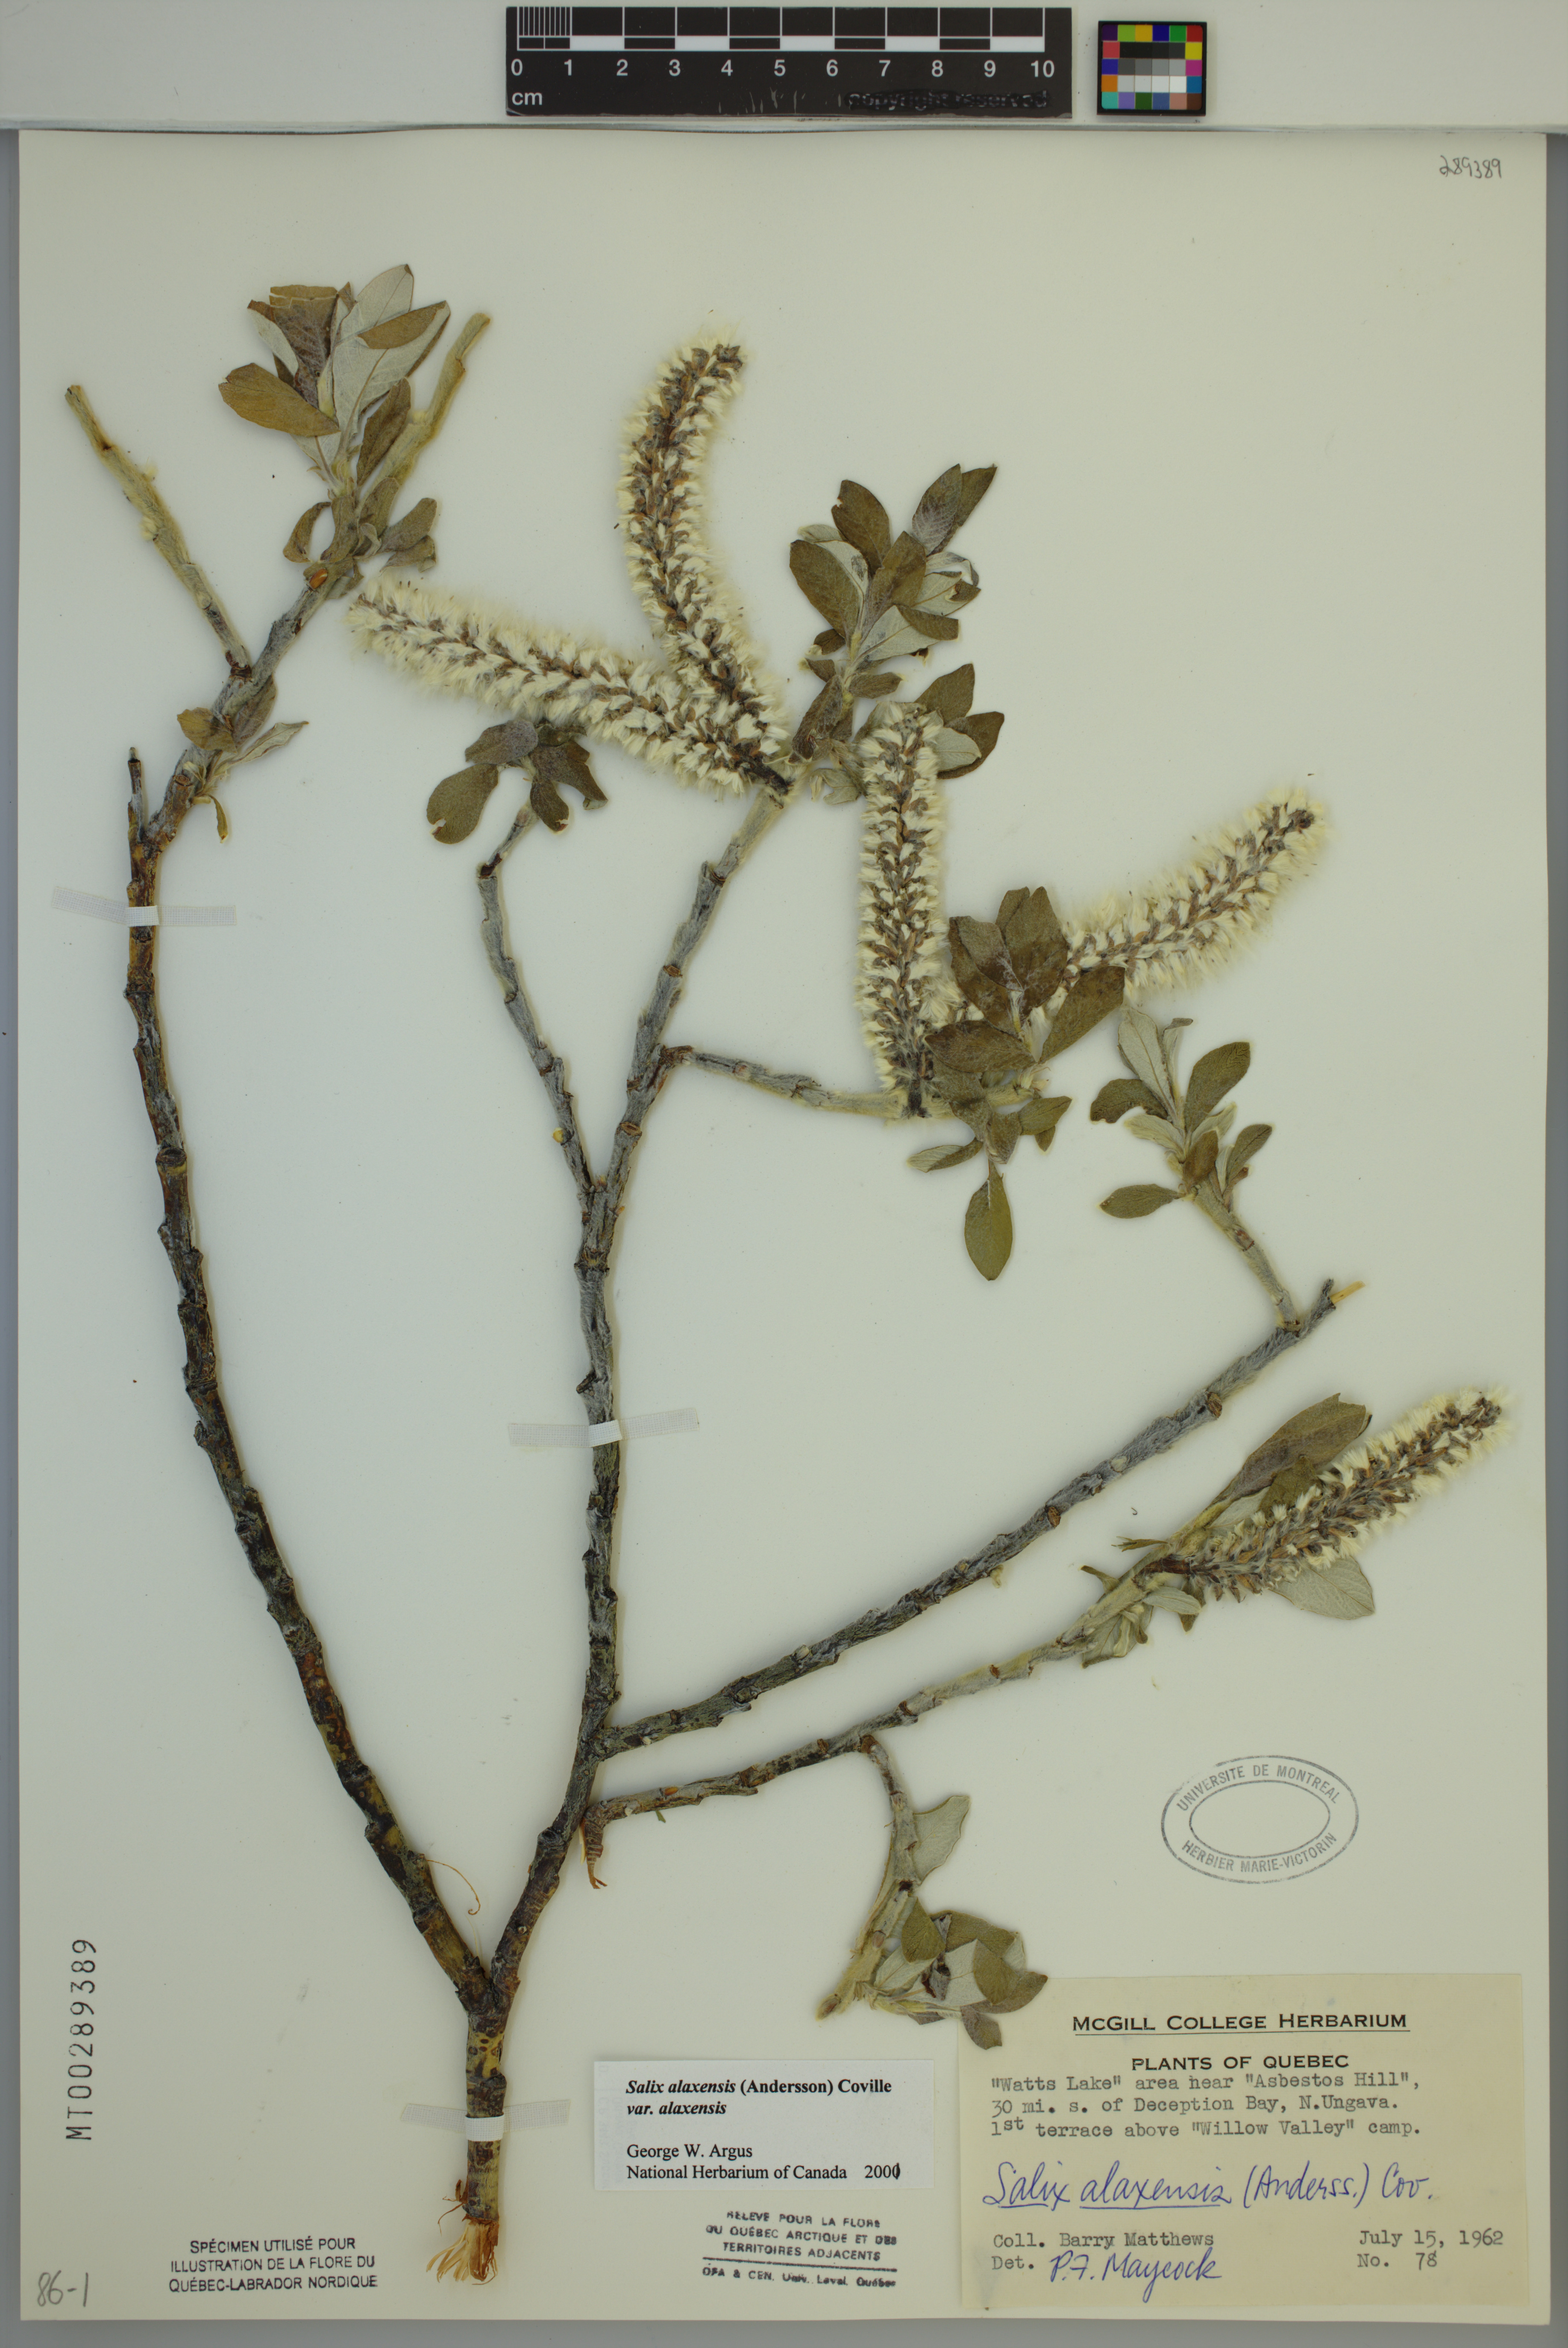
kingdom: Plantae
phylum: Tracheophyta
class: Magnoliopsida
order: Malpighiales
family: Salicaceae
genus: Salix
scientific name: Salix alaxensis
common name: Feltleaf willow
